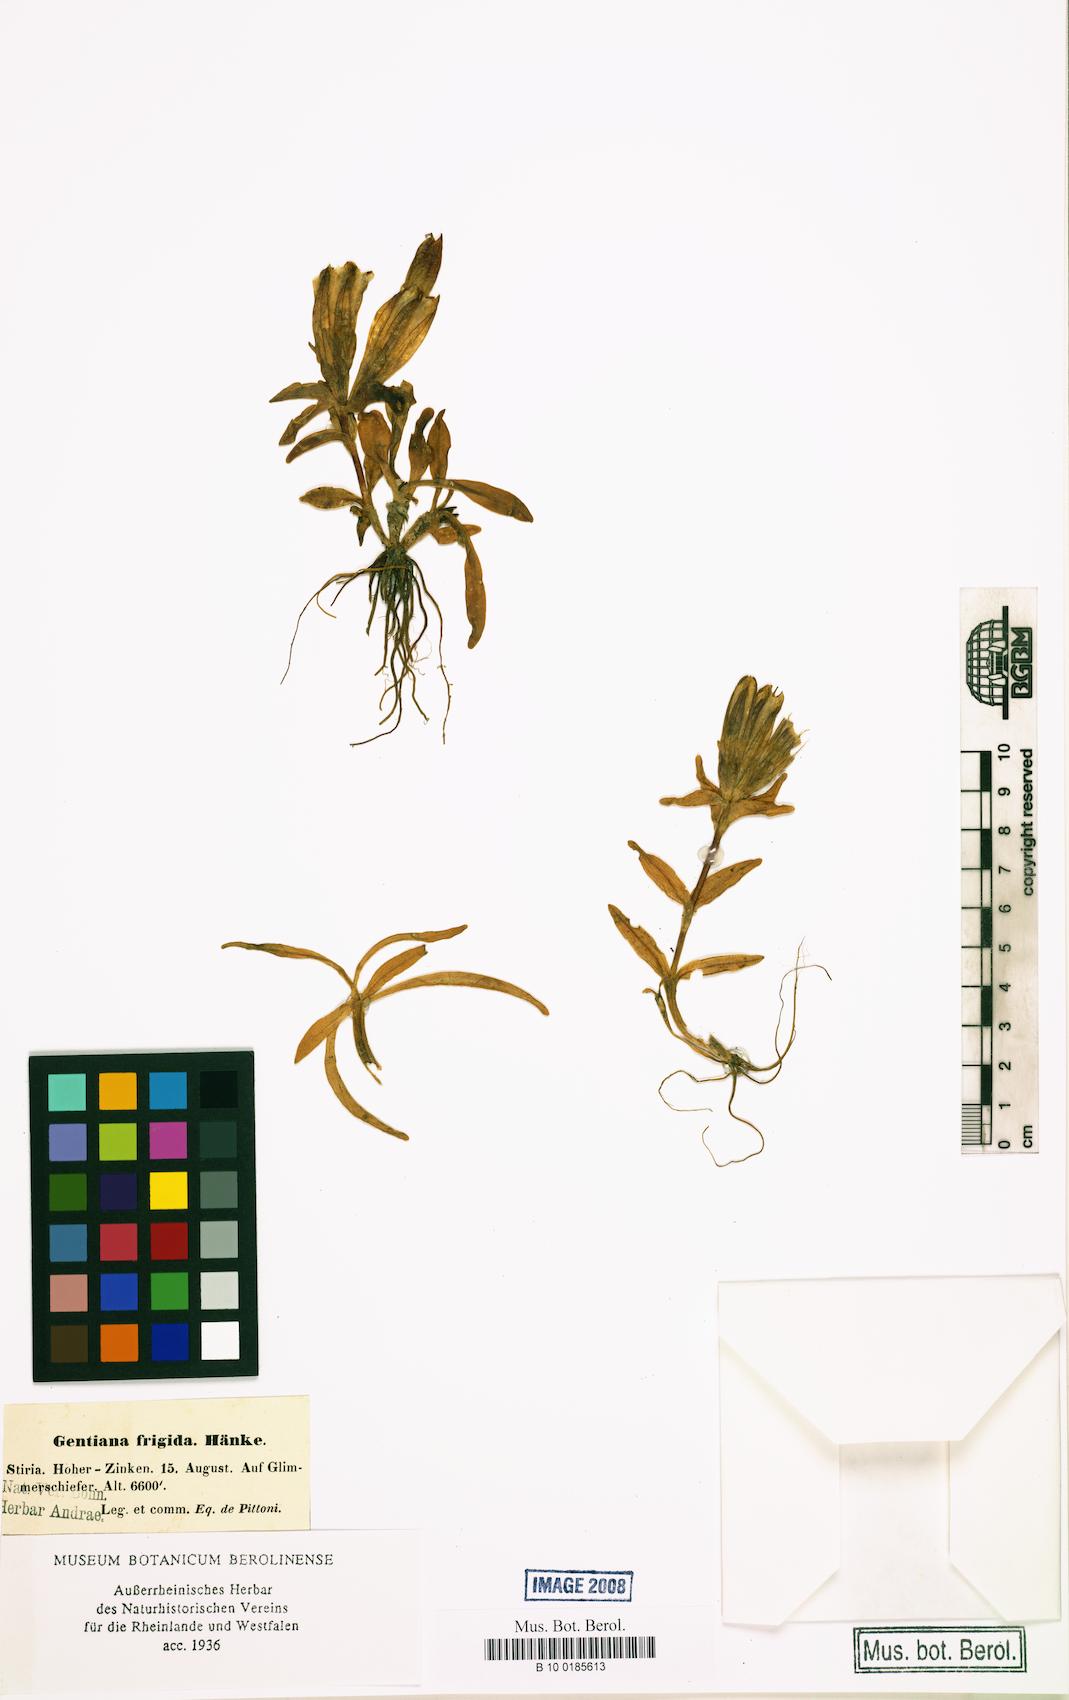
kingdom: Plantae
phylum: Tracheophyta
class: Magnoliopsida
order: Gentianales
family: Gentianaceae
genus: Gentiana
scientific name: Gentiana frigida
